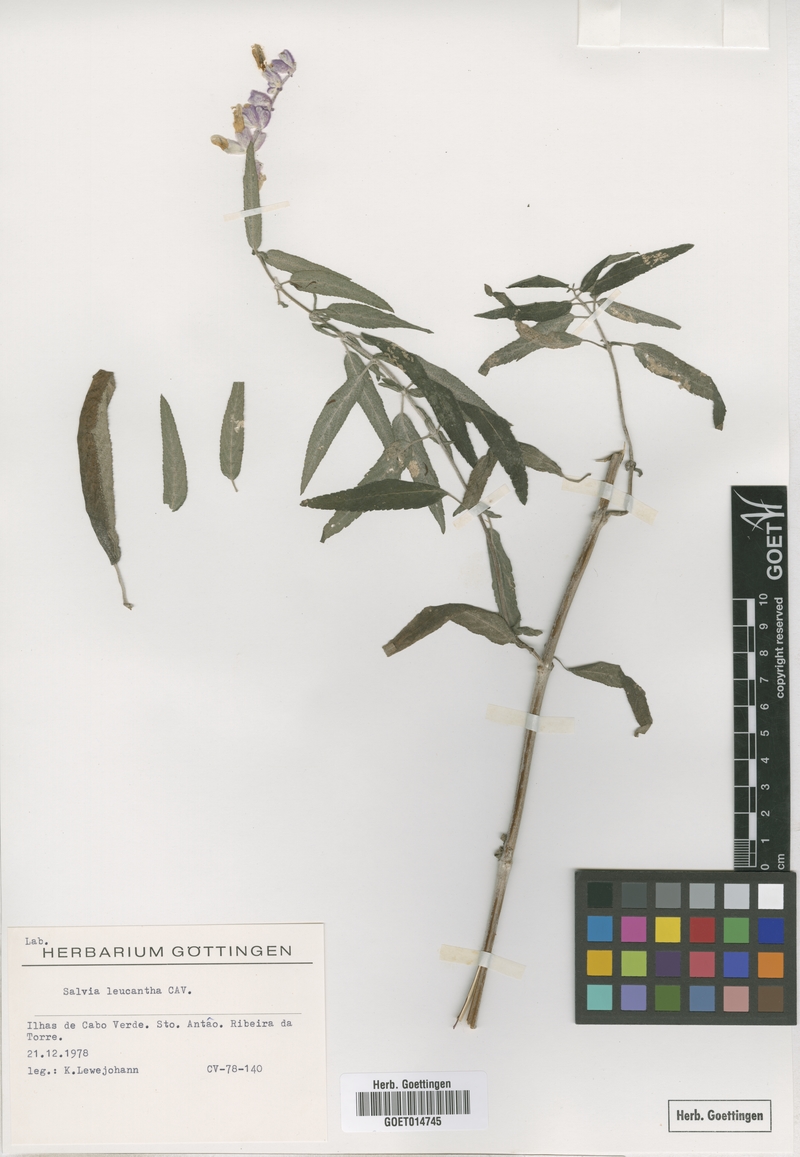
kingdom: Plantae
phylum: Tracheophyta
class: Magnoliopsida
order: Lamiales
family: Lamiaceae
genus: Salvia
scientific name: Salvia leucantha
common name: Mexican bush sage
